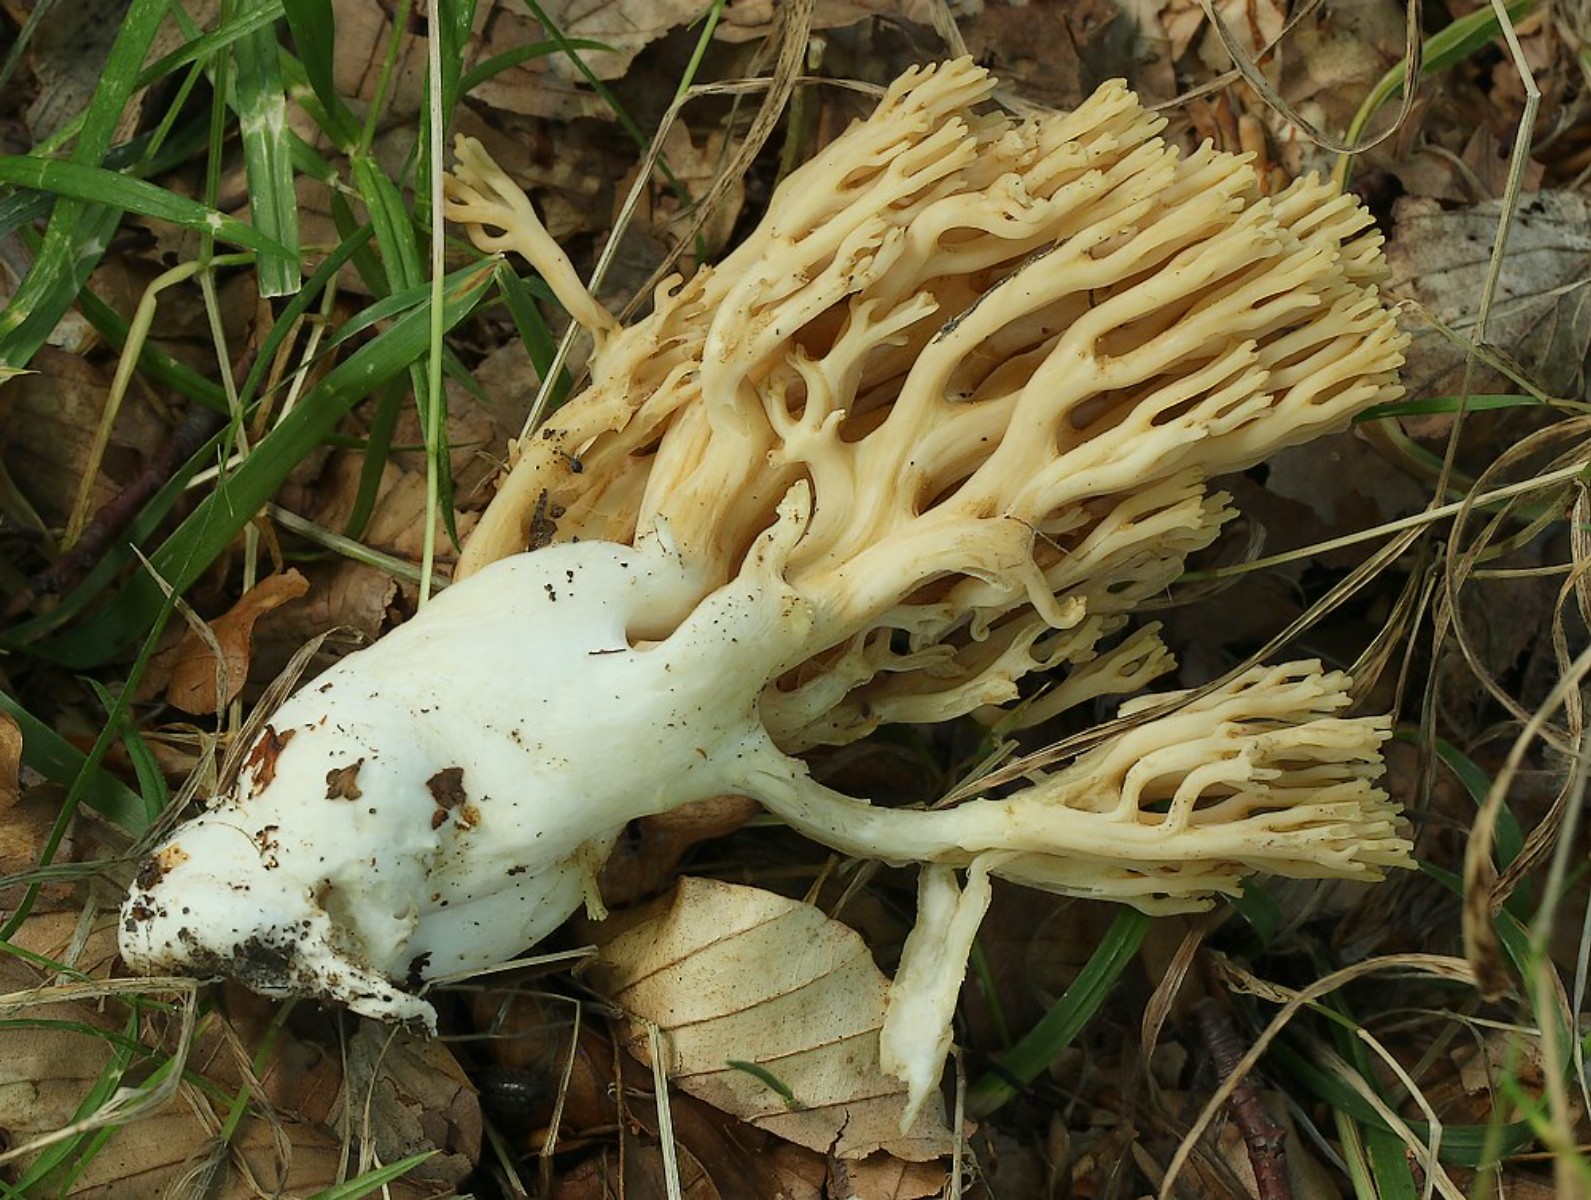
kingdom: Fungi
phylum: Basidiomycota
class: Agaricomycetes
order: Gomphales
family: Gomphaceae
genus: Ramaria
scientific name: Ramaria krieglsteineri
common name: smalsporet koralsvamp
